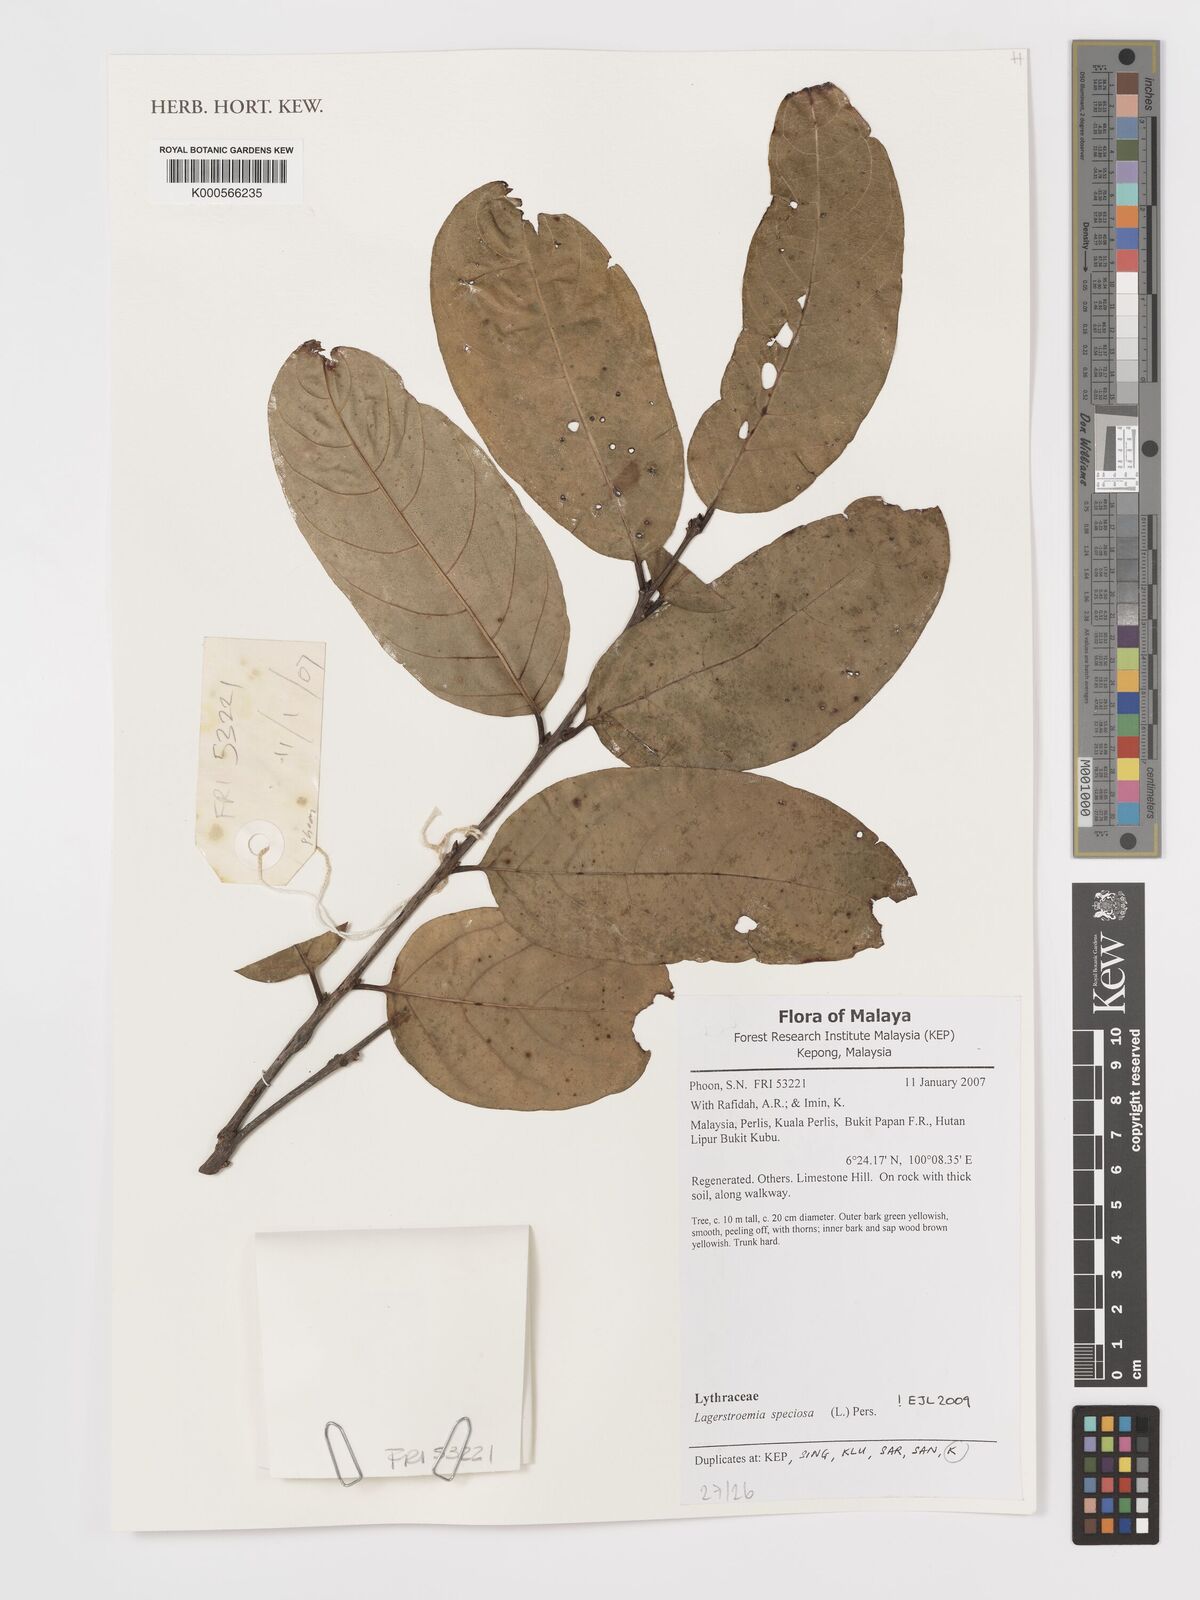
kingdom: Plantae
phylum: Tracheophyta
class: Magnoliopsida
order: Myrtales
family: Lythraceae
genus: Lagerstroemia
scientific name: Lagerstroemia speciosa
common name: Queen's crape-myrtle
